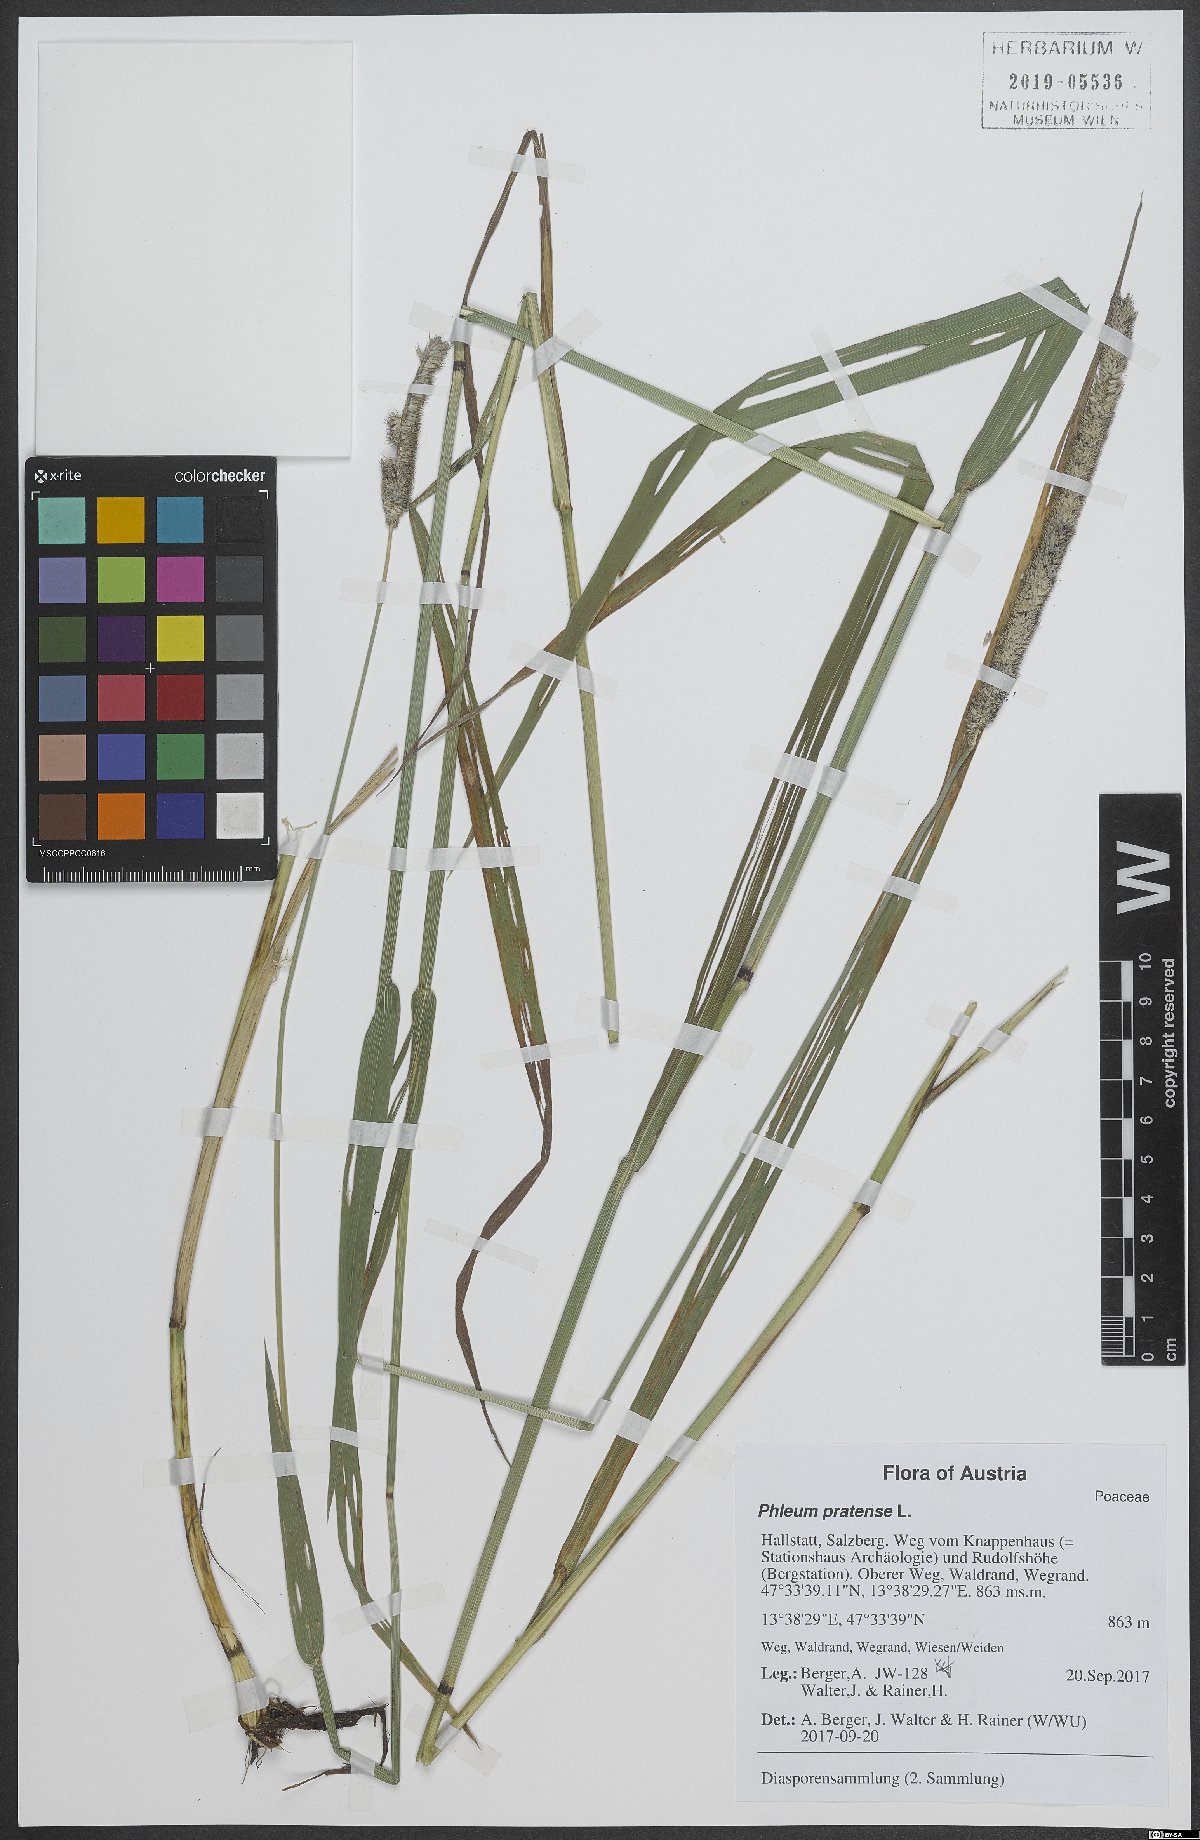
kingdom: Plantae
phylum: Tracheophyta
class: Liliopsida
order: Poales
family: Poaceae
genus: Phleum
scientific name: Phleum pratense
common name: Timothy grass
